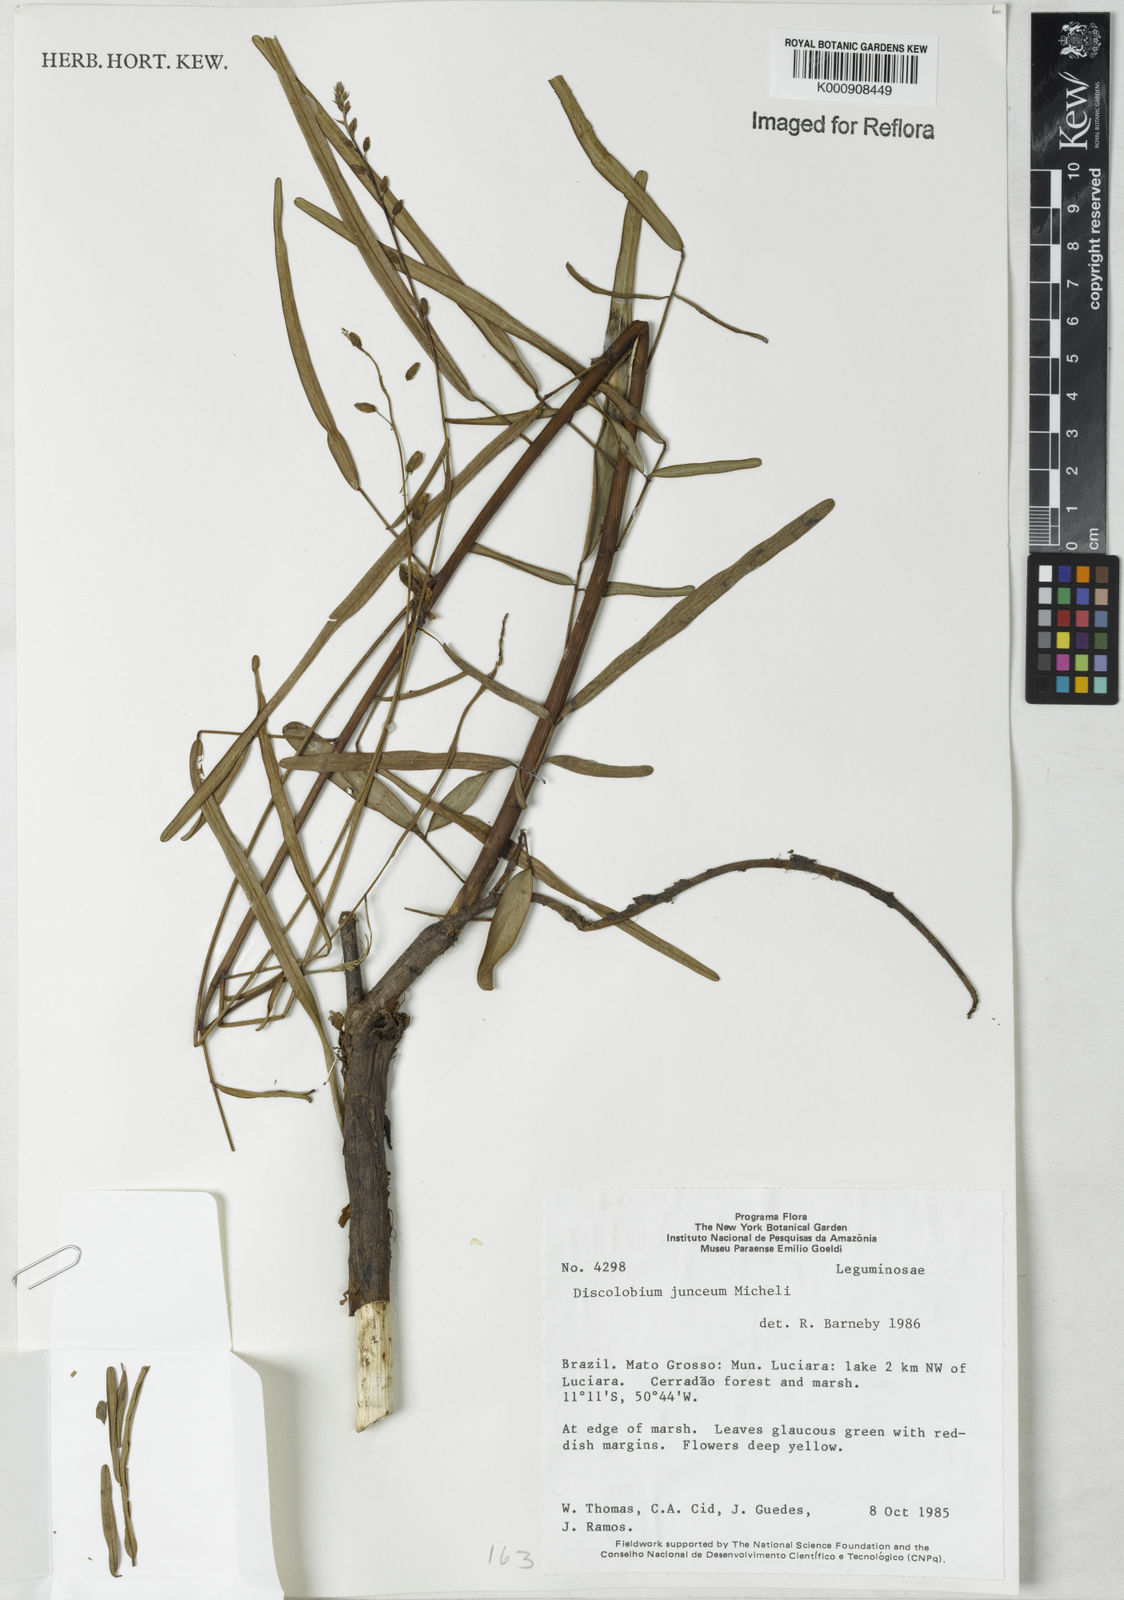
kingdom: Plantae
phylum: Tracheophyta
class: Magnoliopsida
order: Fabales
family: Fabaceae
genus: Discolobium
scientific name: Discolobium junceum
